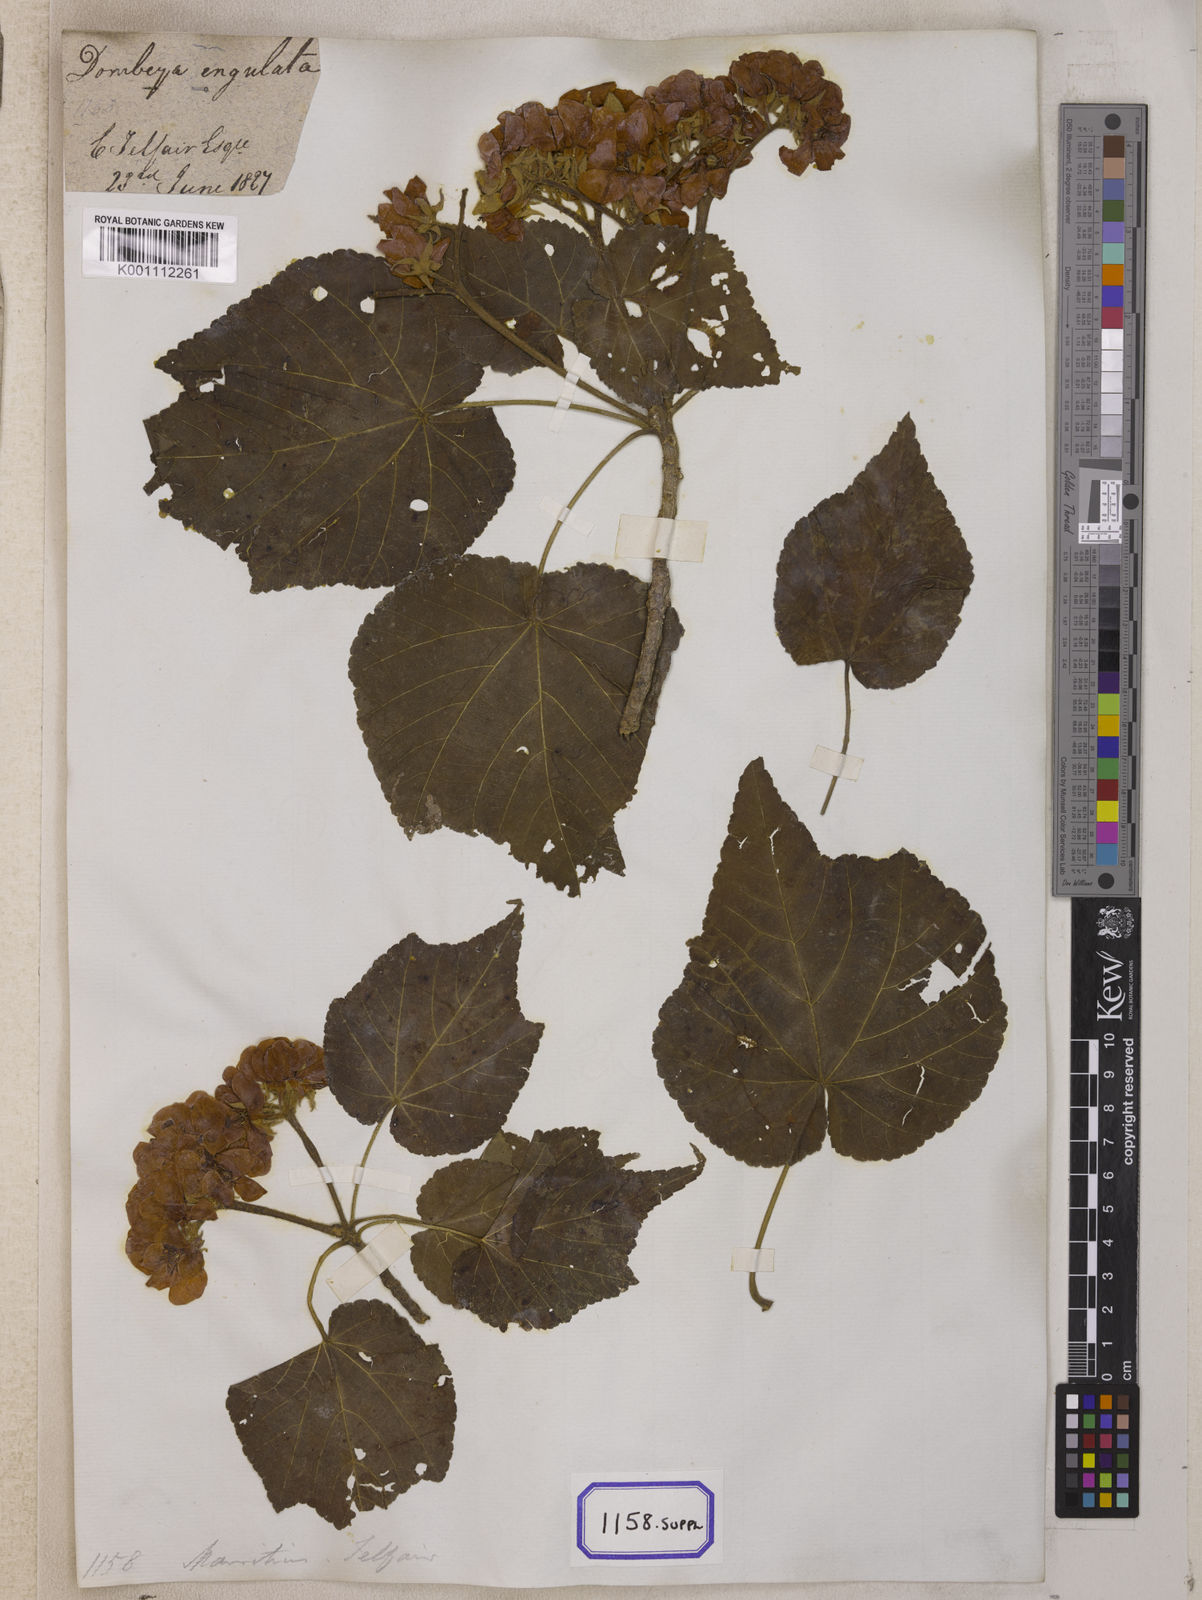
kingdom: Plantae
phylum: Tracheophyta
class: Magnoliopsida
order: Malvales
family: Malvaceae
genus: Dombeya
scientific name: Dombeya acutangula
